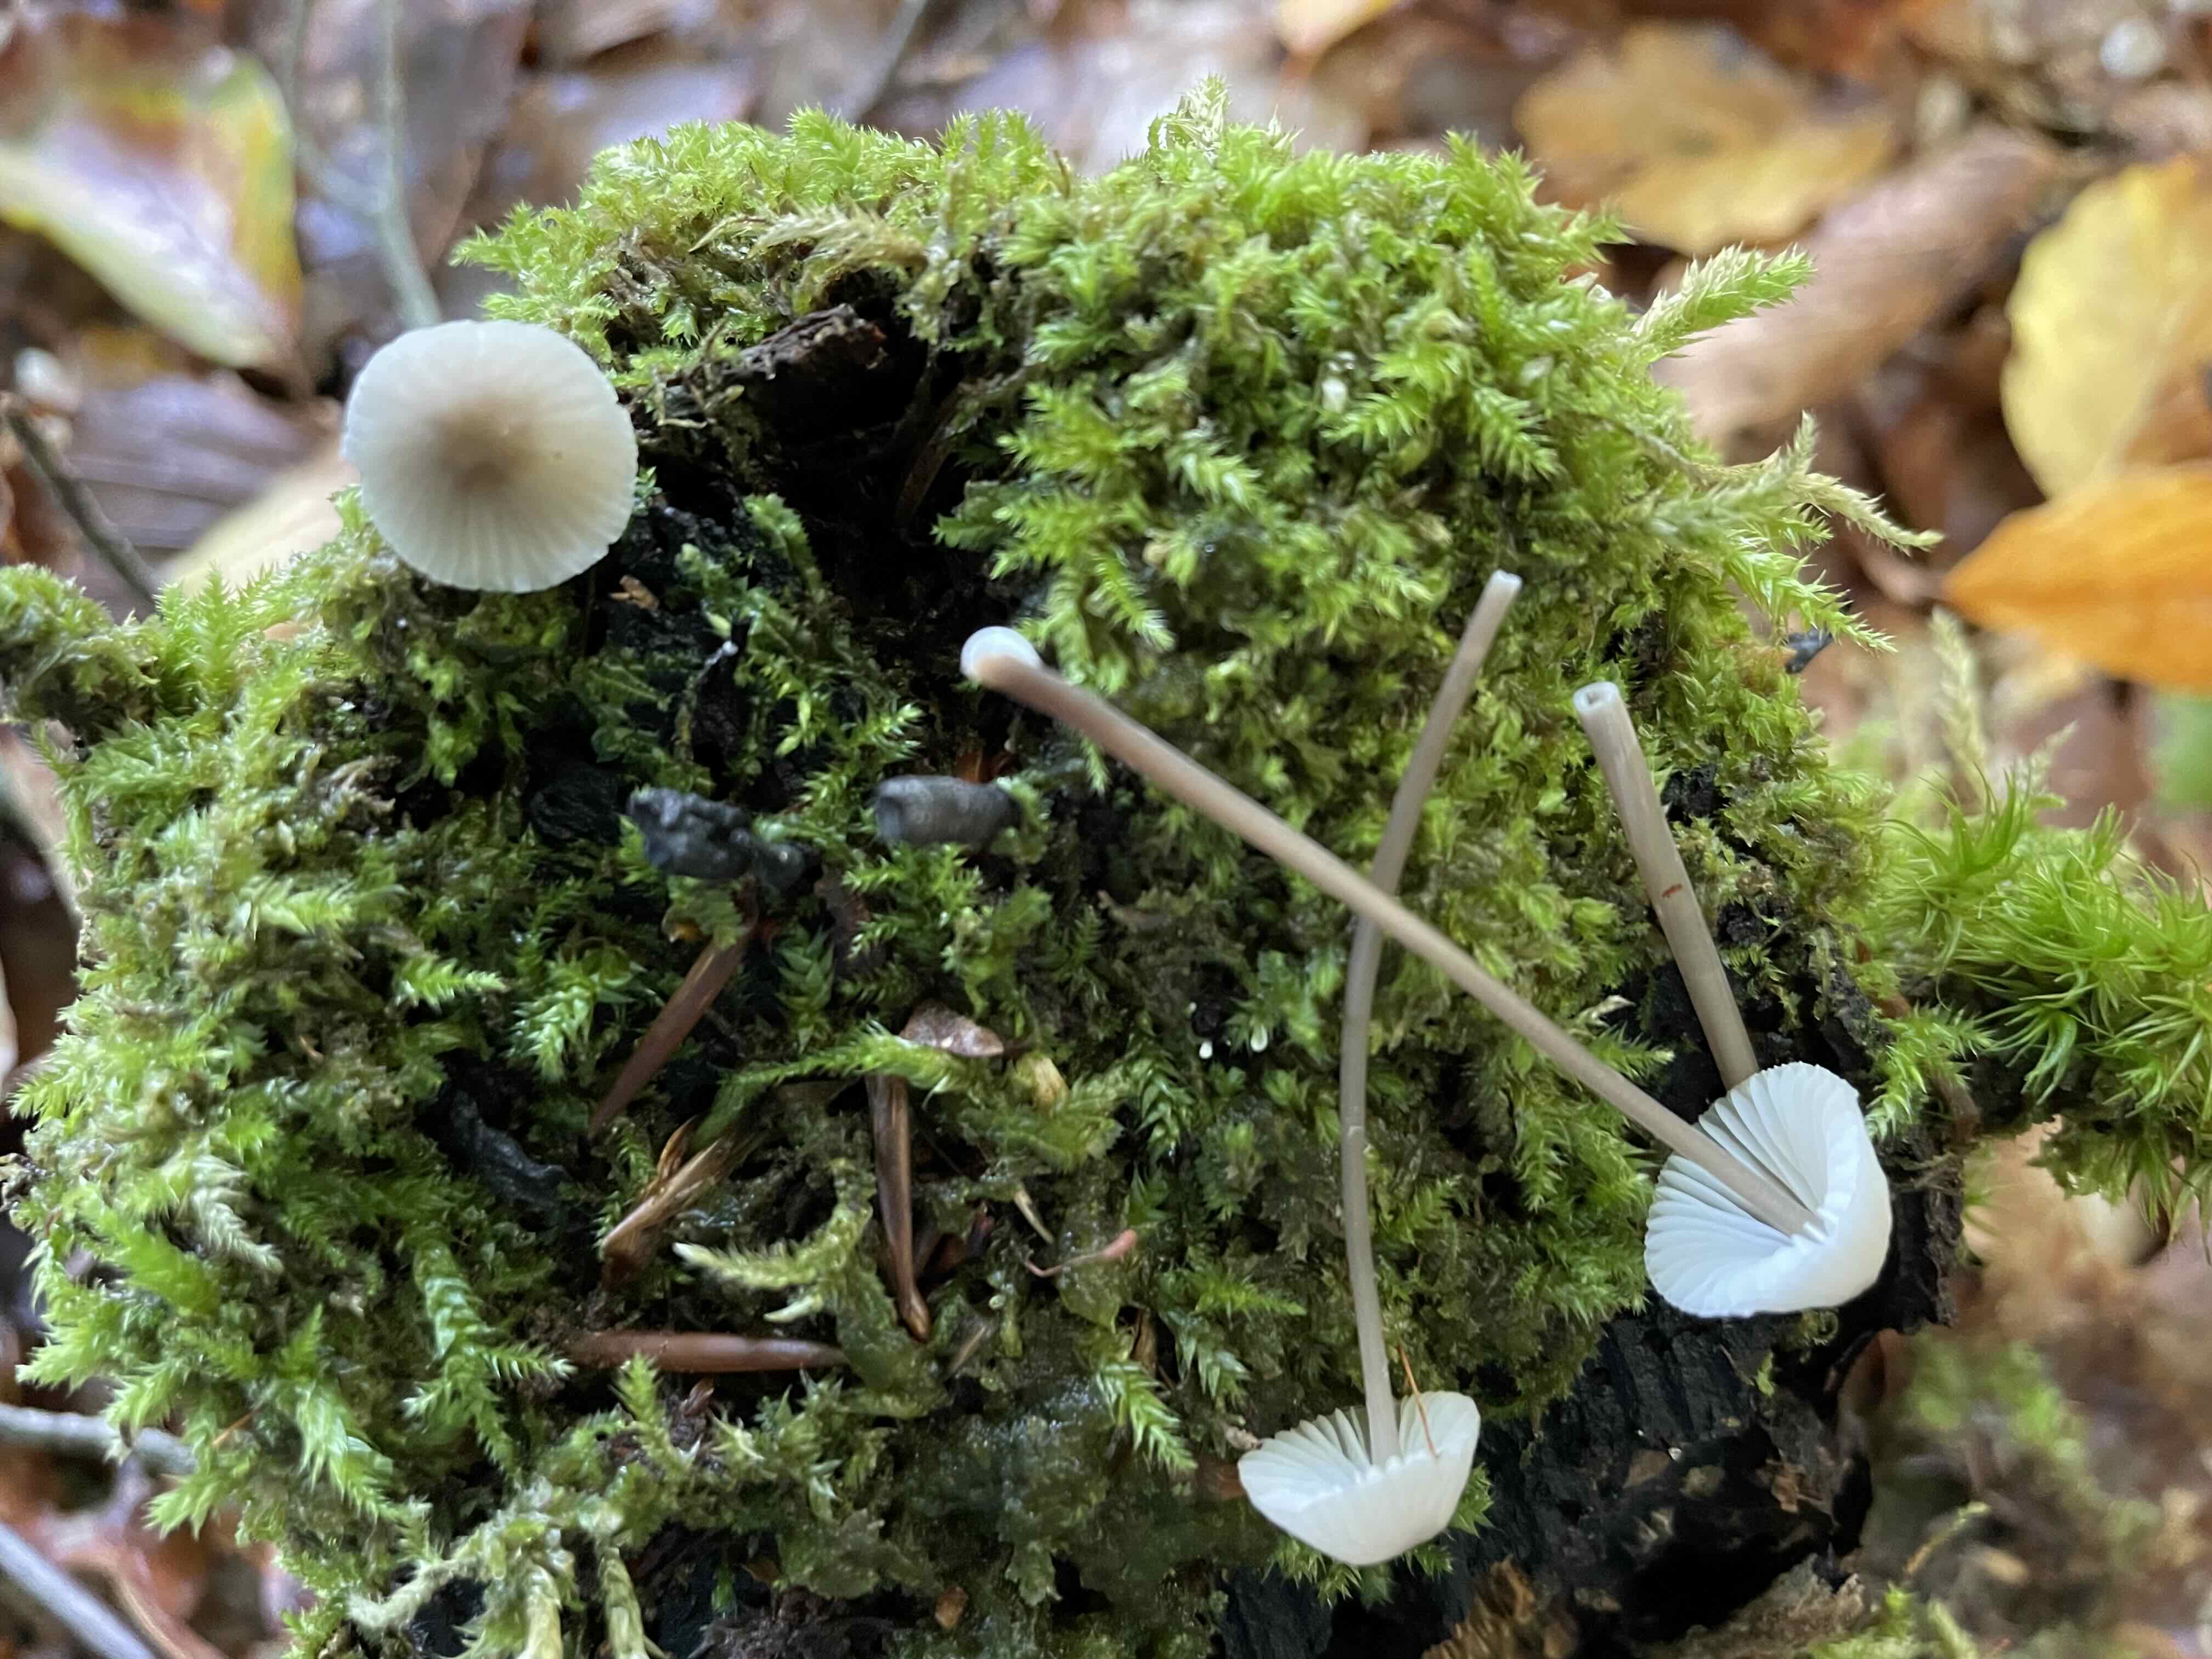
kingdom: Fungi
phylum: Basidiomycota
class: Agaricomycetes
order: Agaricales
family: Mycenaceae
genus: Mycena
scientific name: Mycena galopus
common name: hvidmælket huesvamp
